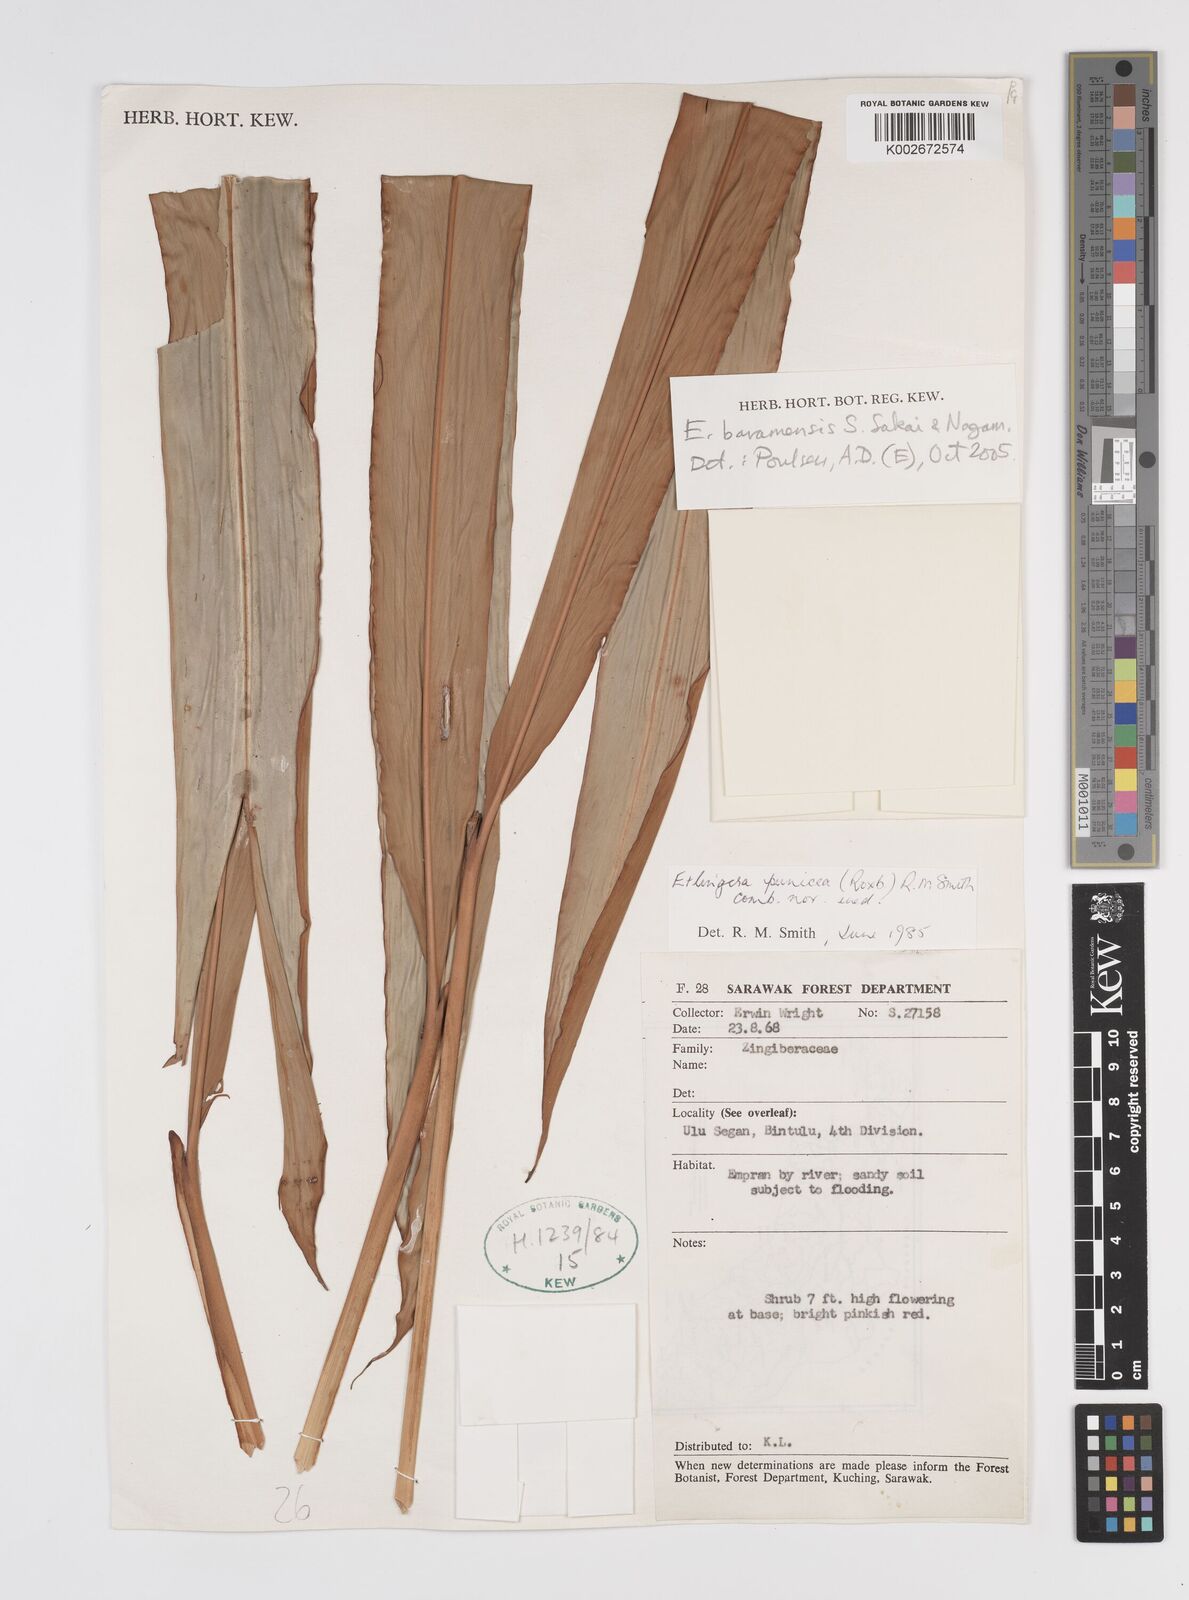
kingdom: Plantae
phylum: Tracheophyta
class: Liliopsida
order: Zingiberales
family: Zingiberaceae
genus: Etlingera
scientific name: Etlingera baramensis
